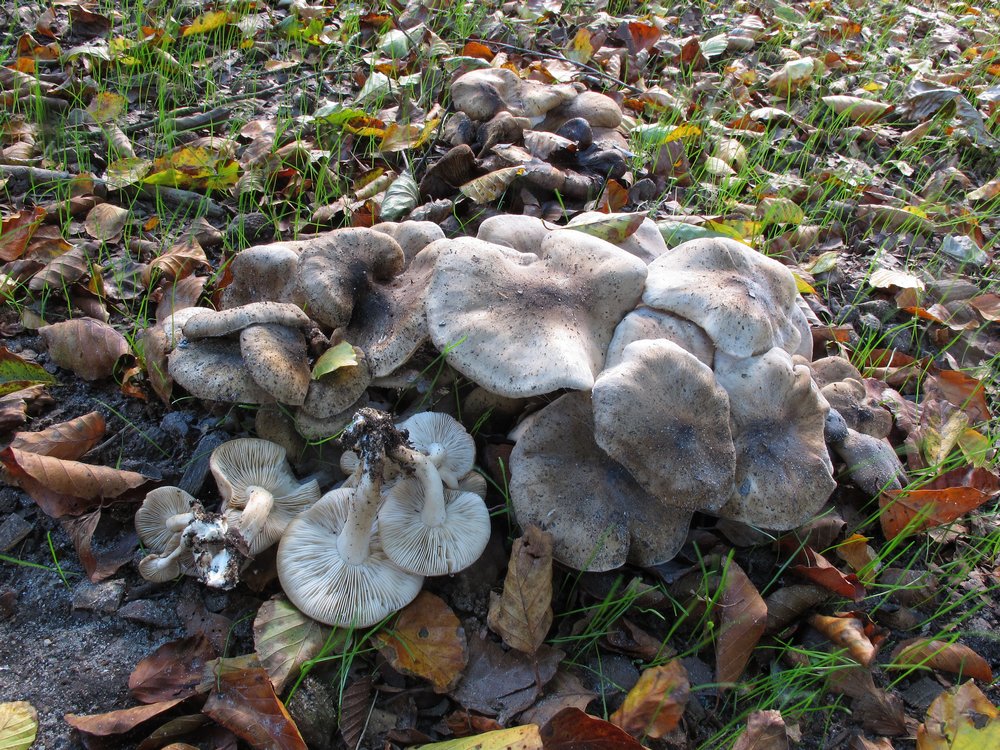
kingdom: Fungi
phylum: Basidiomycota
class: Agaricomycetes
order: Agaricales
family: Lyophyllaceae
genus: Lyophyllum
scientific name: Lyophyllum decastes
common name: Clustered domecap
